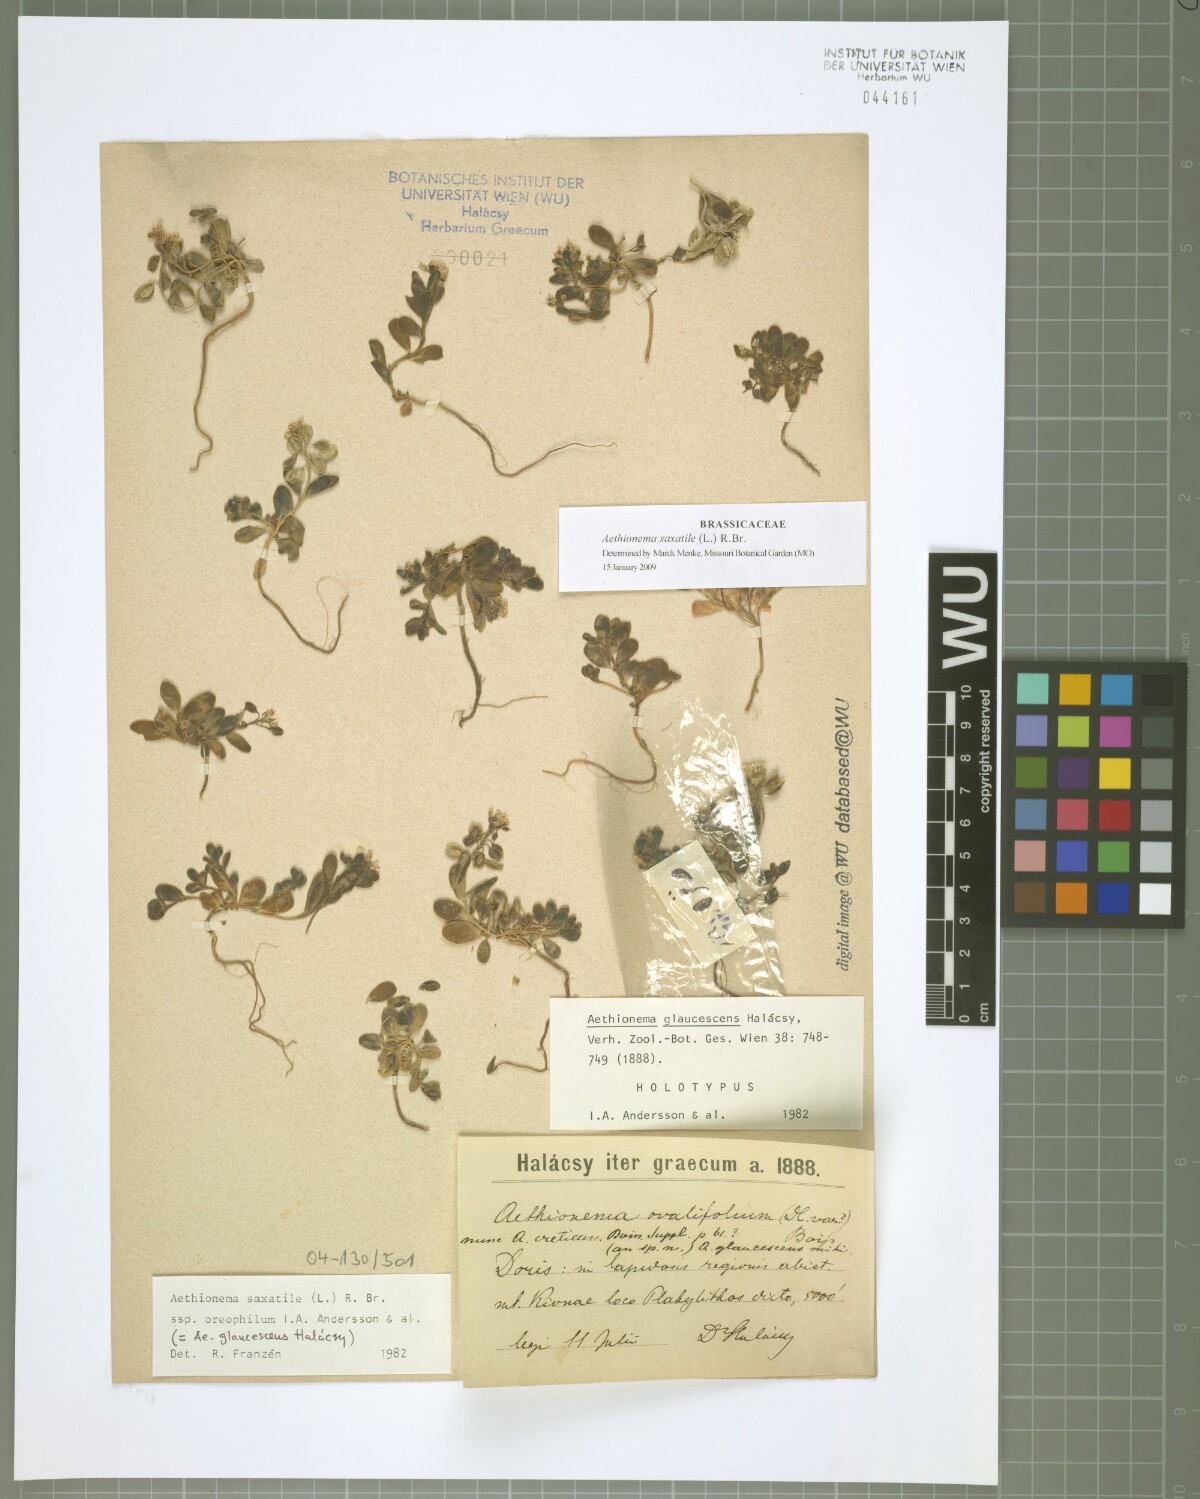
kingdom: Plantae
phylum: Tracheophyta
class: Magnoliopsida
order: Brassicales
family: Brassicaceae
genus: Aethionema
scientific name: Aethionema saxatile
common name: Burnt candytuft
